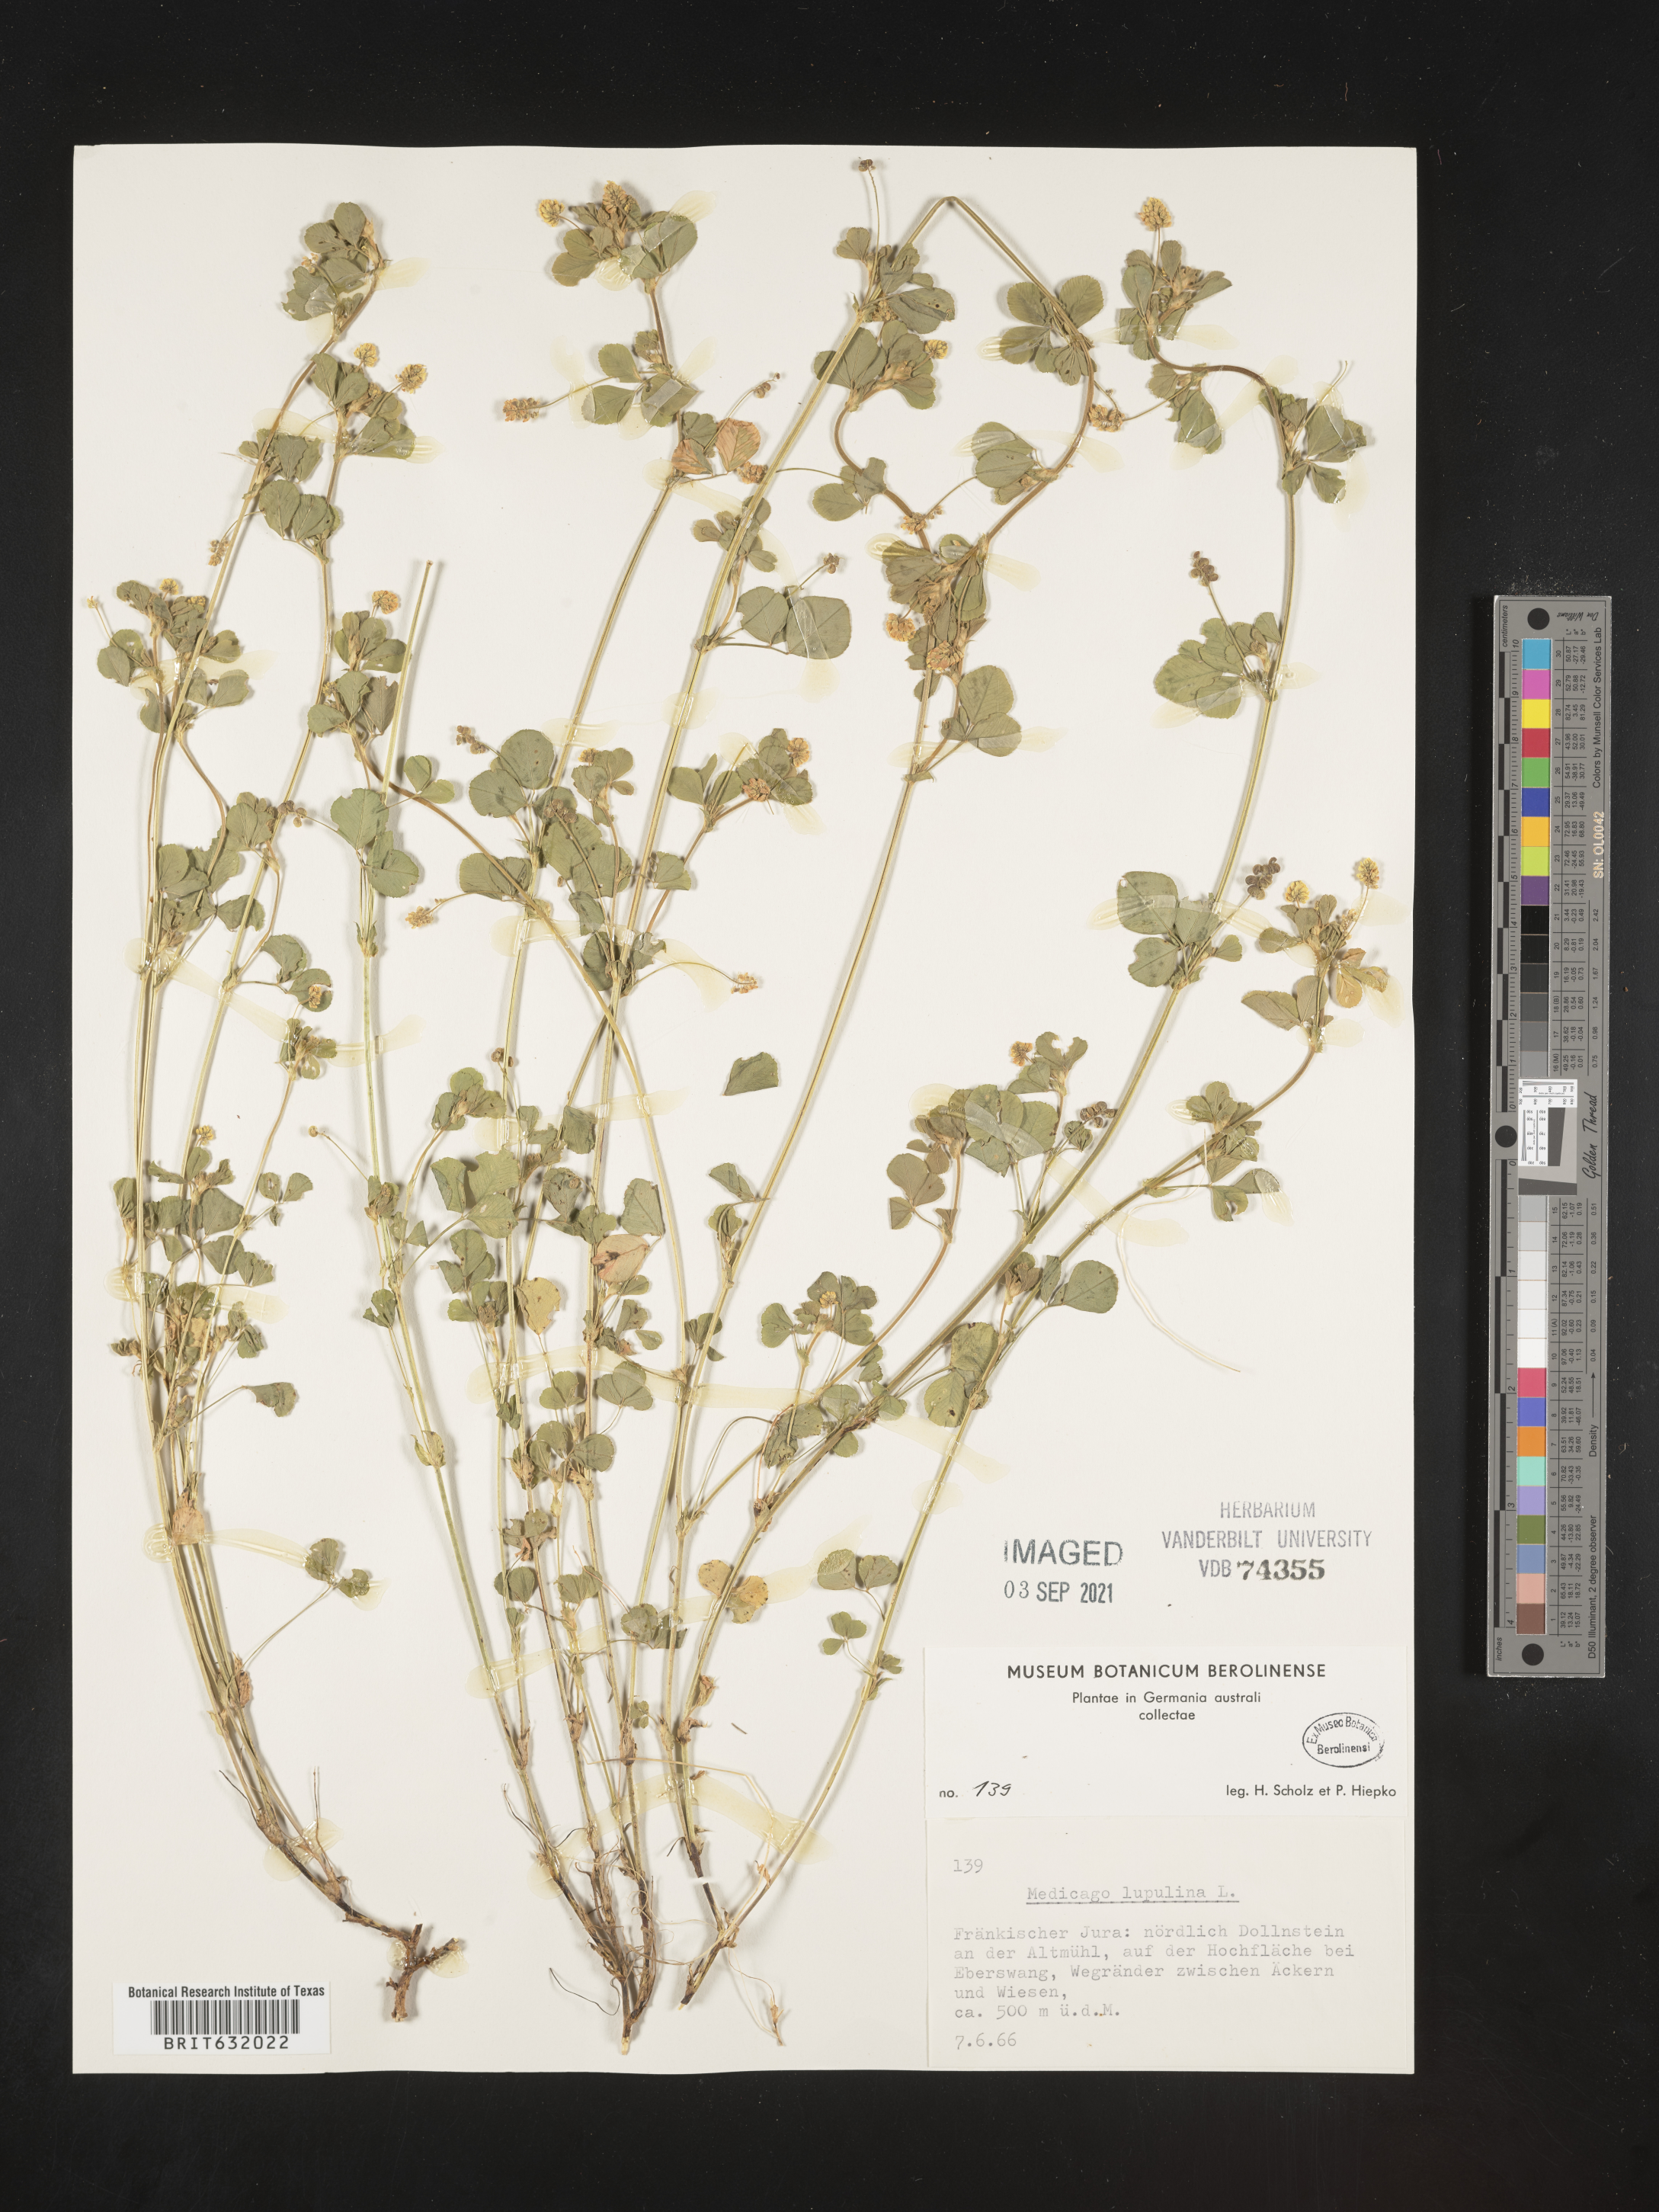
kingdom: Plantae
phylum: Tracheophyta
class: Magnoliopsida
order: Fabales
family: Fabaceae
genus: Medicago
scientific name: Medicago
